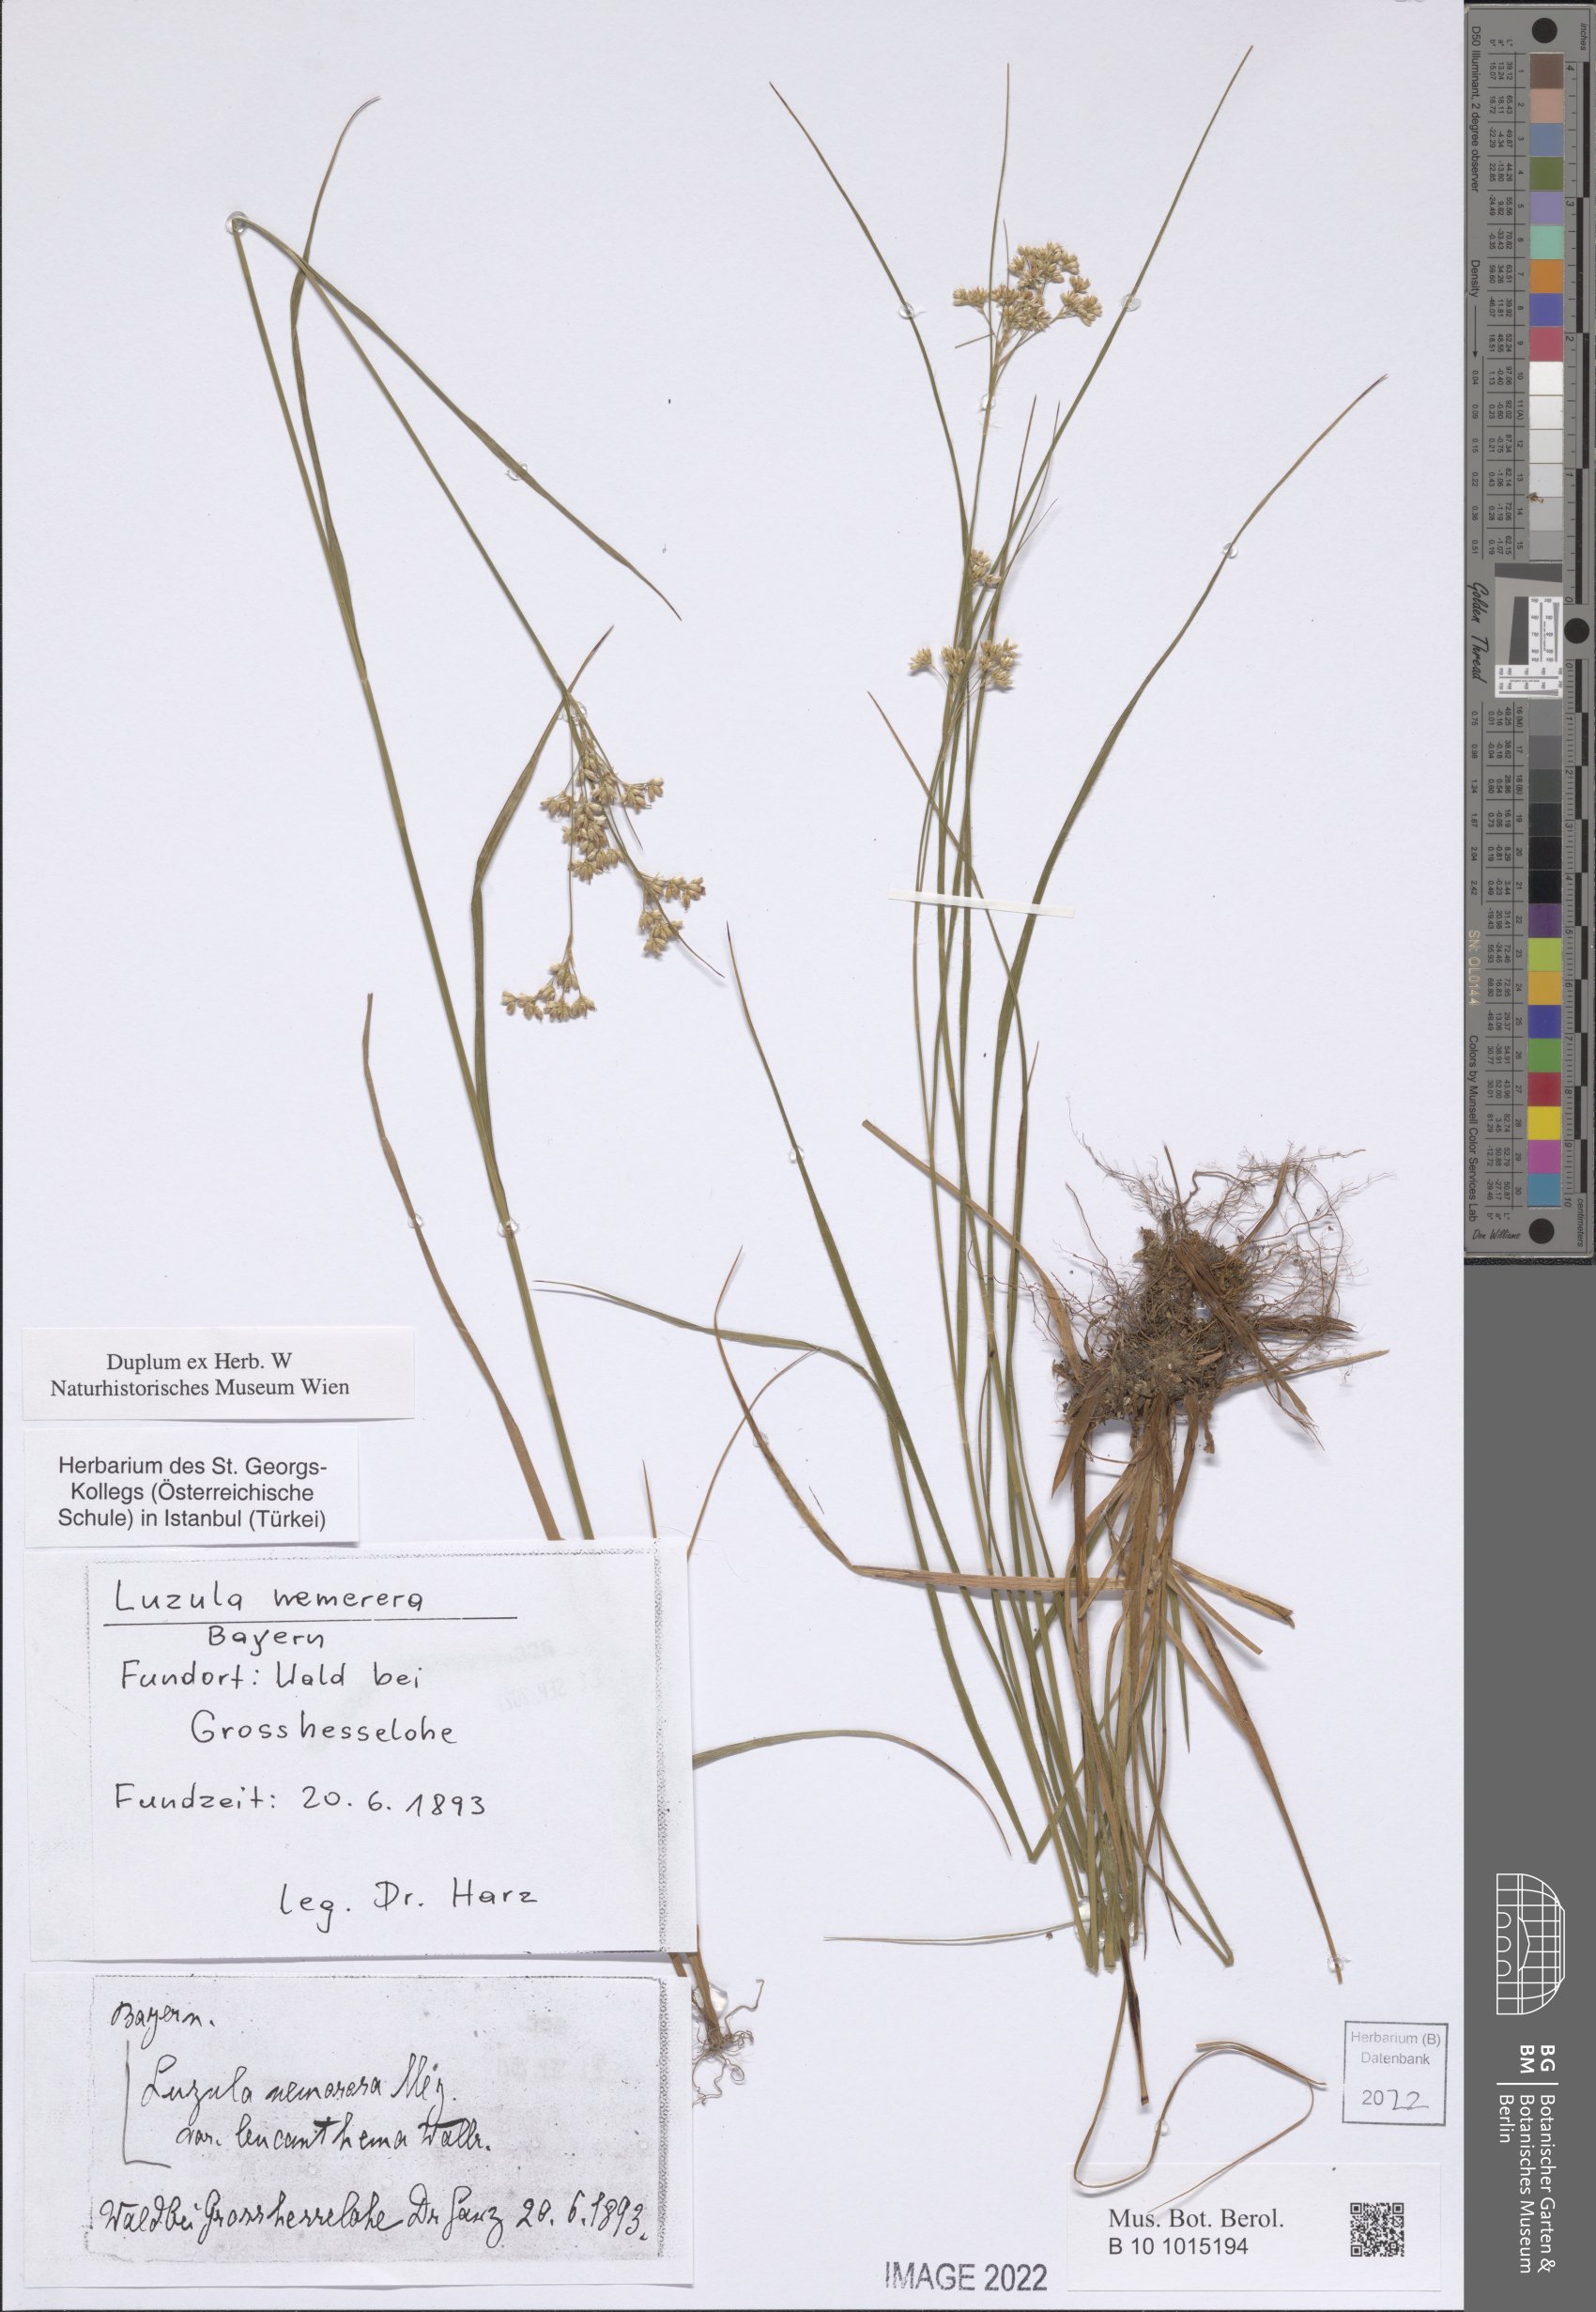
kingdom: Plantae
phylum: Tracheophyta
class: Liliopsida
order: Poales
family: Juncaceae
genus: Luzula
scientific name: Luzula luzuloides
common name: White wood-rush
